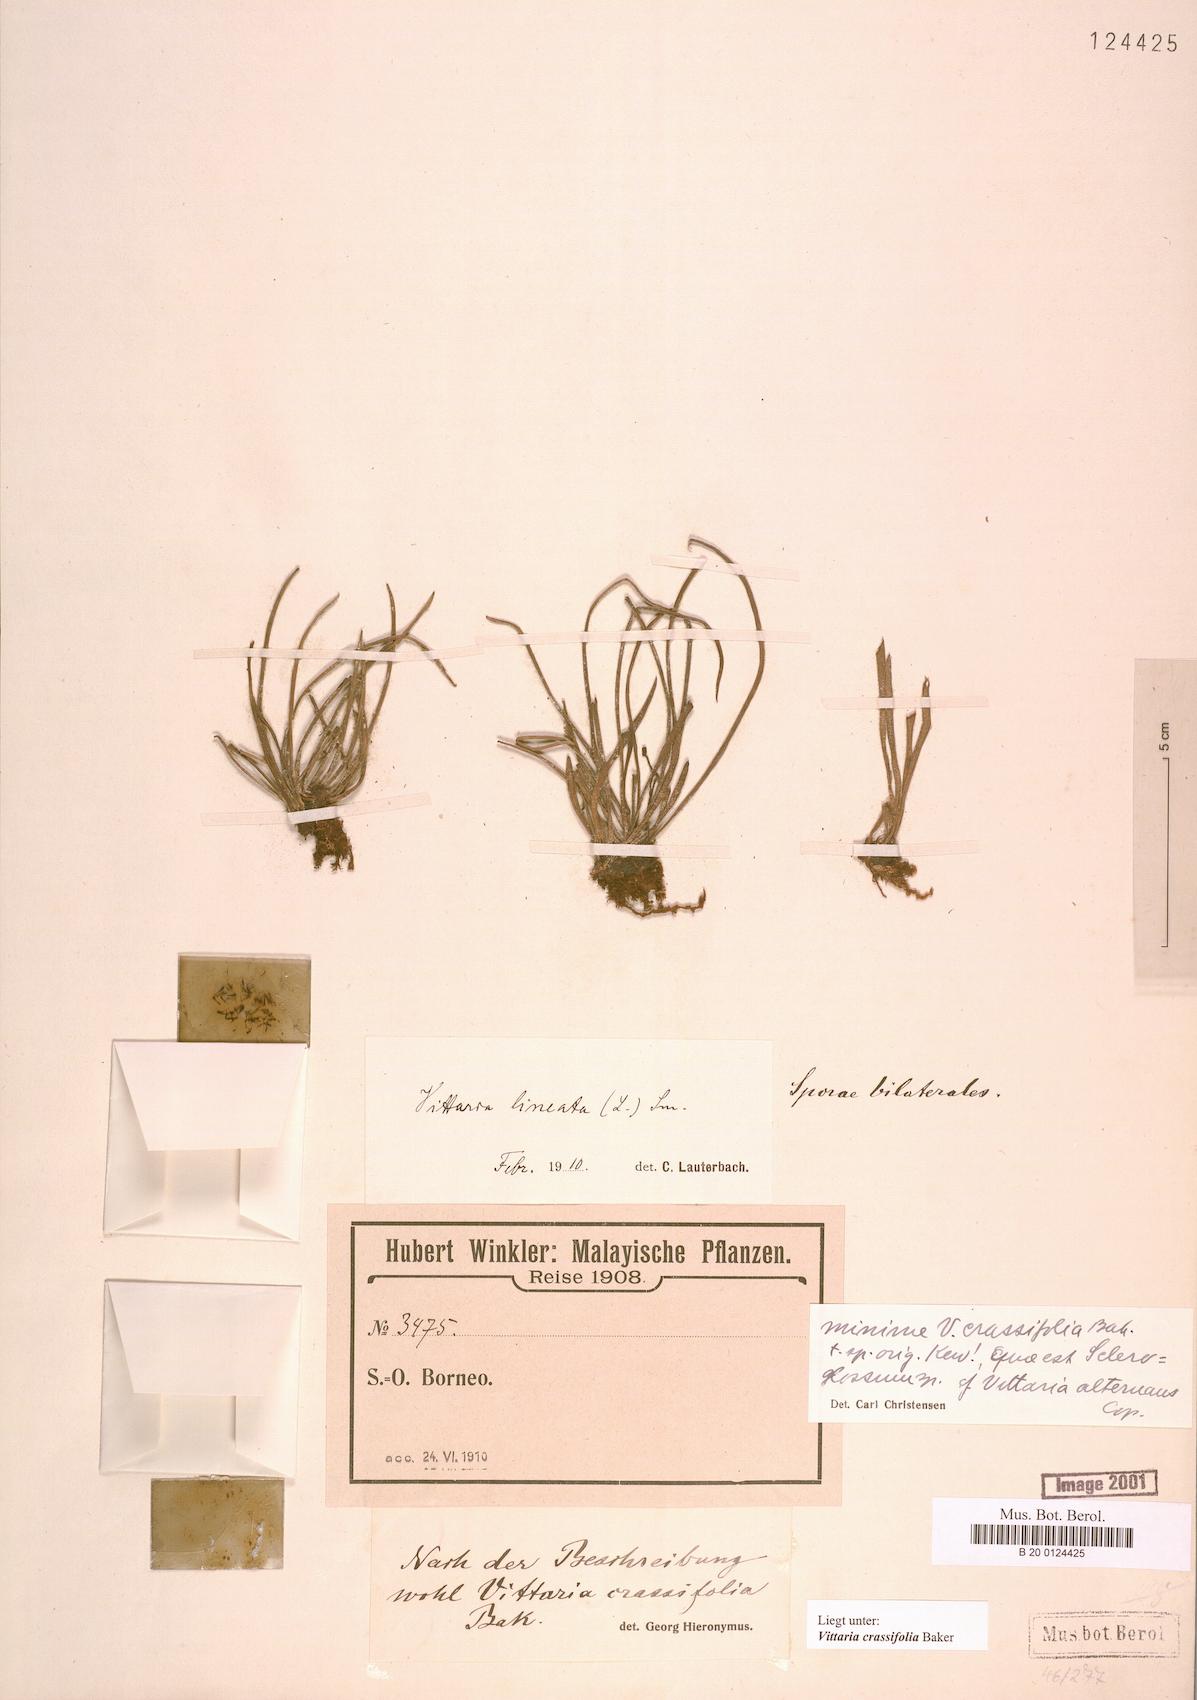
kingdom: Plantae
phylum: Tracheophyta
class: Polypodiopsida
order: Polypodiales
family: Polypodiaceae
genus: Scleroglossum
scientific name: Scleroglossum crassifolium
